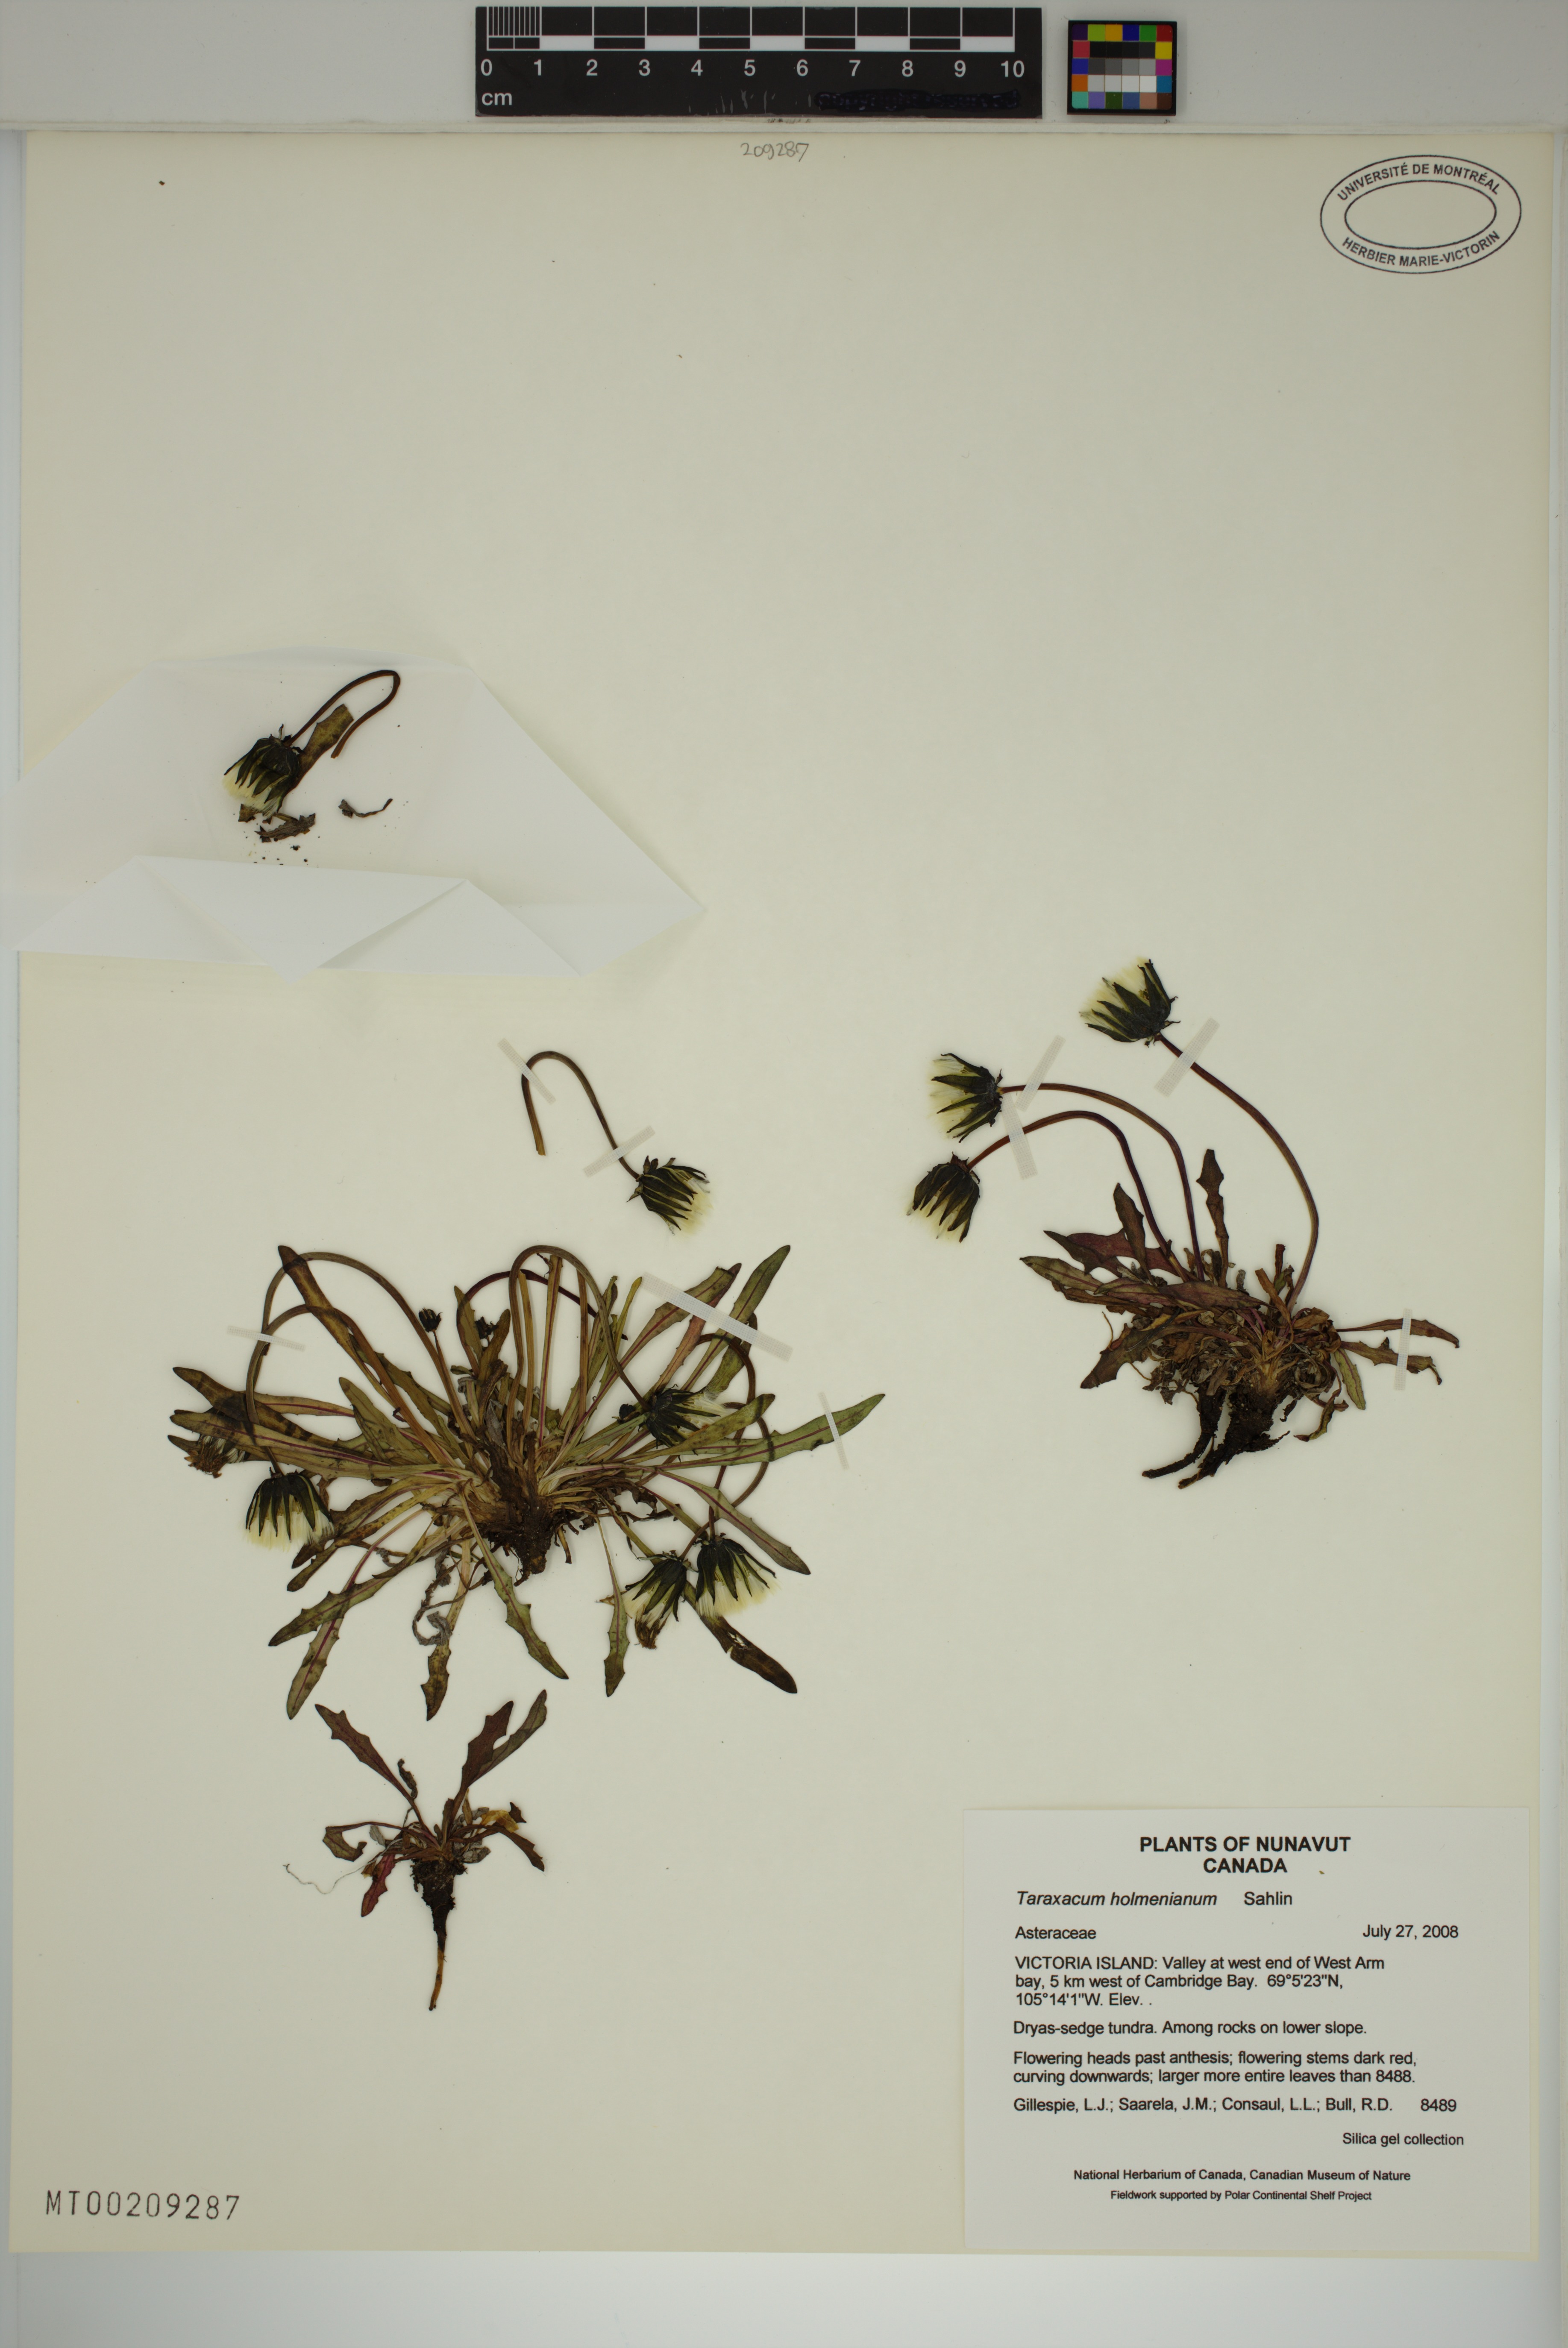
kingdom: Plantae
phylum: Tracheophyta
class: Magnoliopsida
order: Asterales
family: Asteraceae
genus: Taraxacum
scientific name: Taraxacum holmenianum
